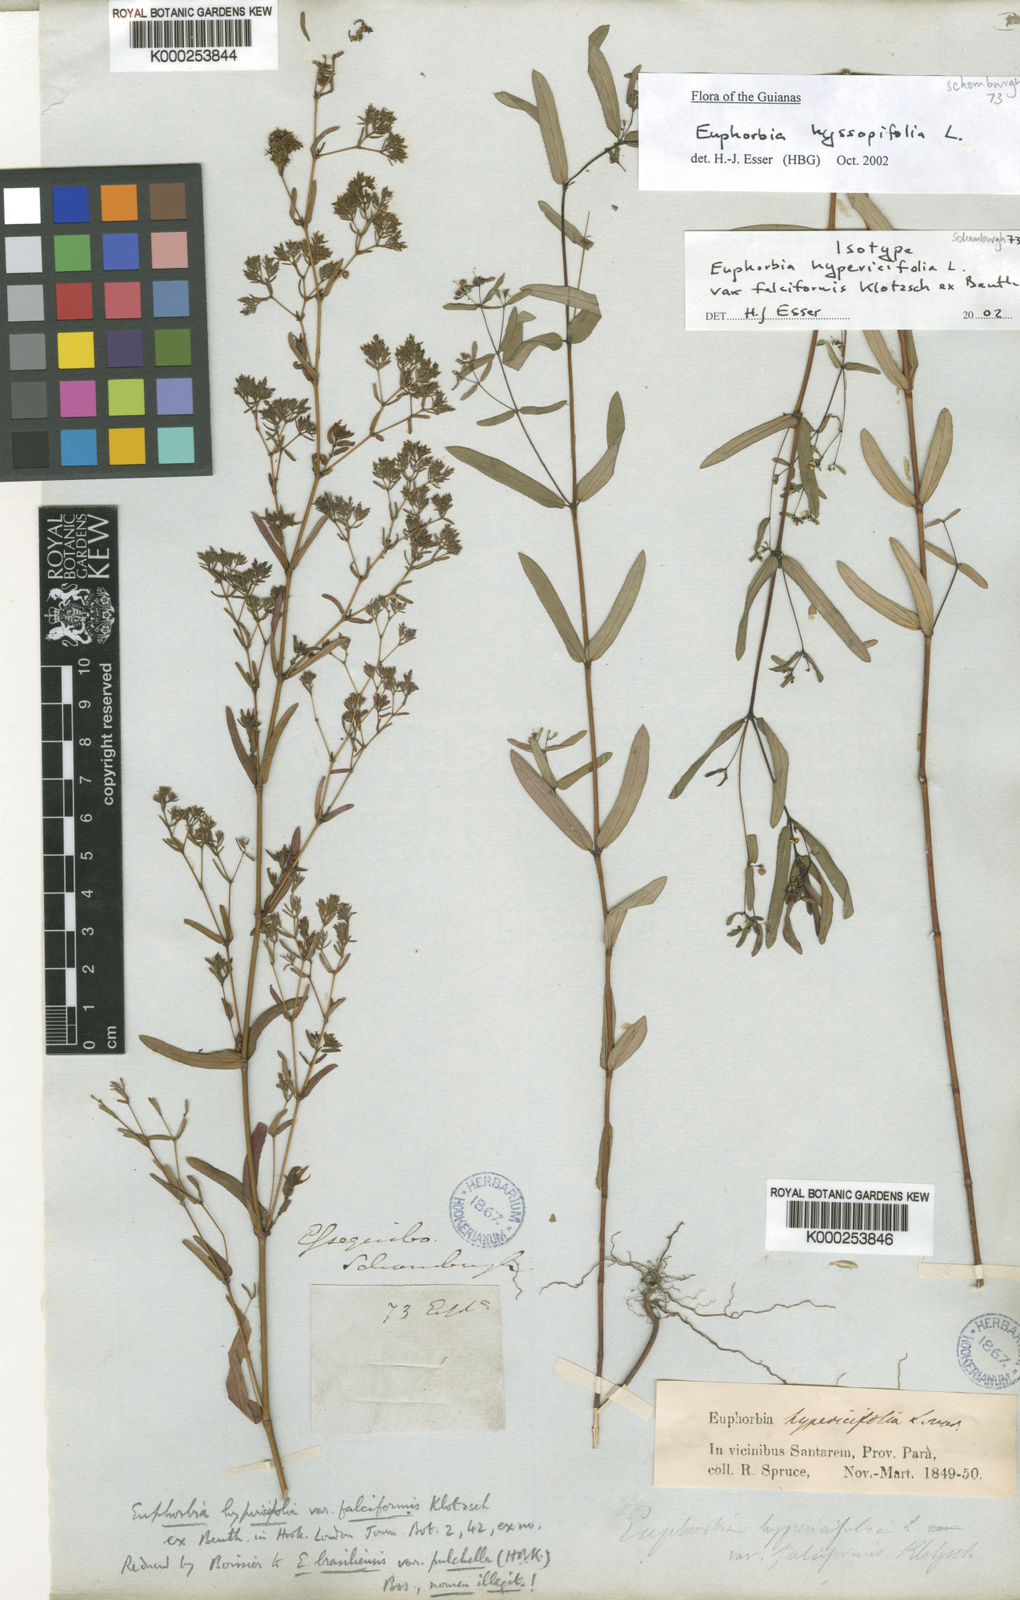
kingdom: Plantae
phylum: Tracheophyta
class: Magnoliopsida
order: Malpighiales
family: Euphorbiaceae
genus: Euphorbia
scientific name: Euphorbia hyssopifolia
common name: Hyssopleaf sandmat
